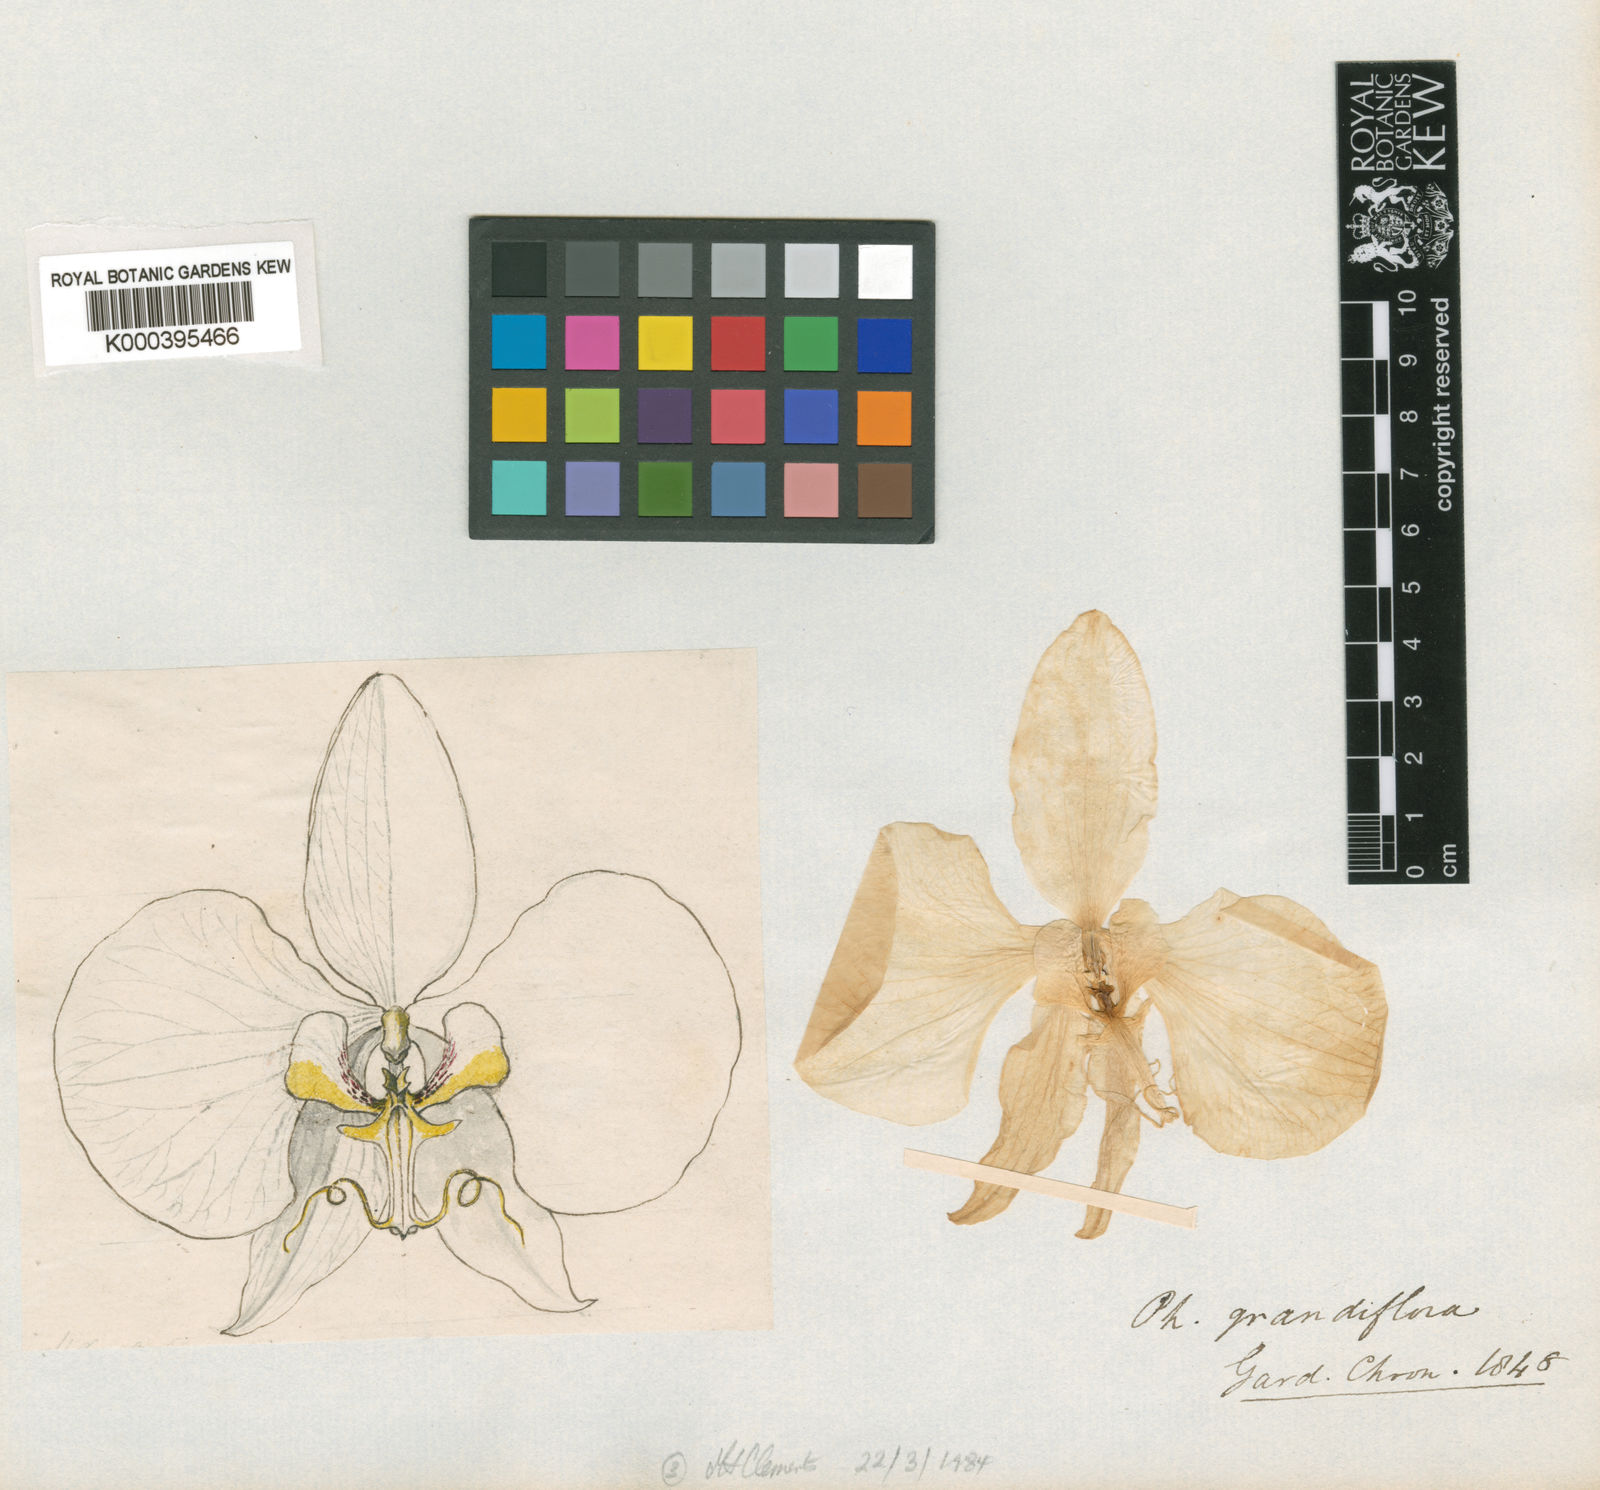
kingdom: Plantae
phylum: Tracheophyta
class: Liliopsida
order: Asparagales
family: Orchidaceae
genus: Phalaenopsis
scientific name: Phalaenopsis amabilis
